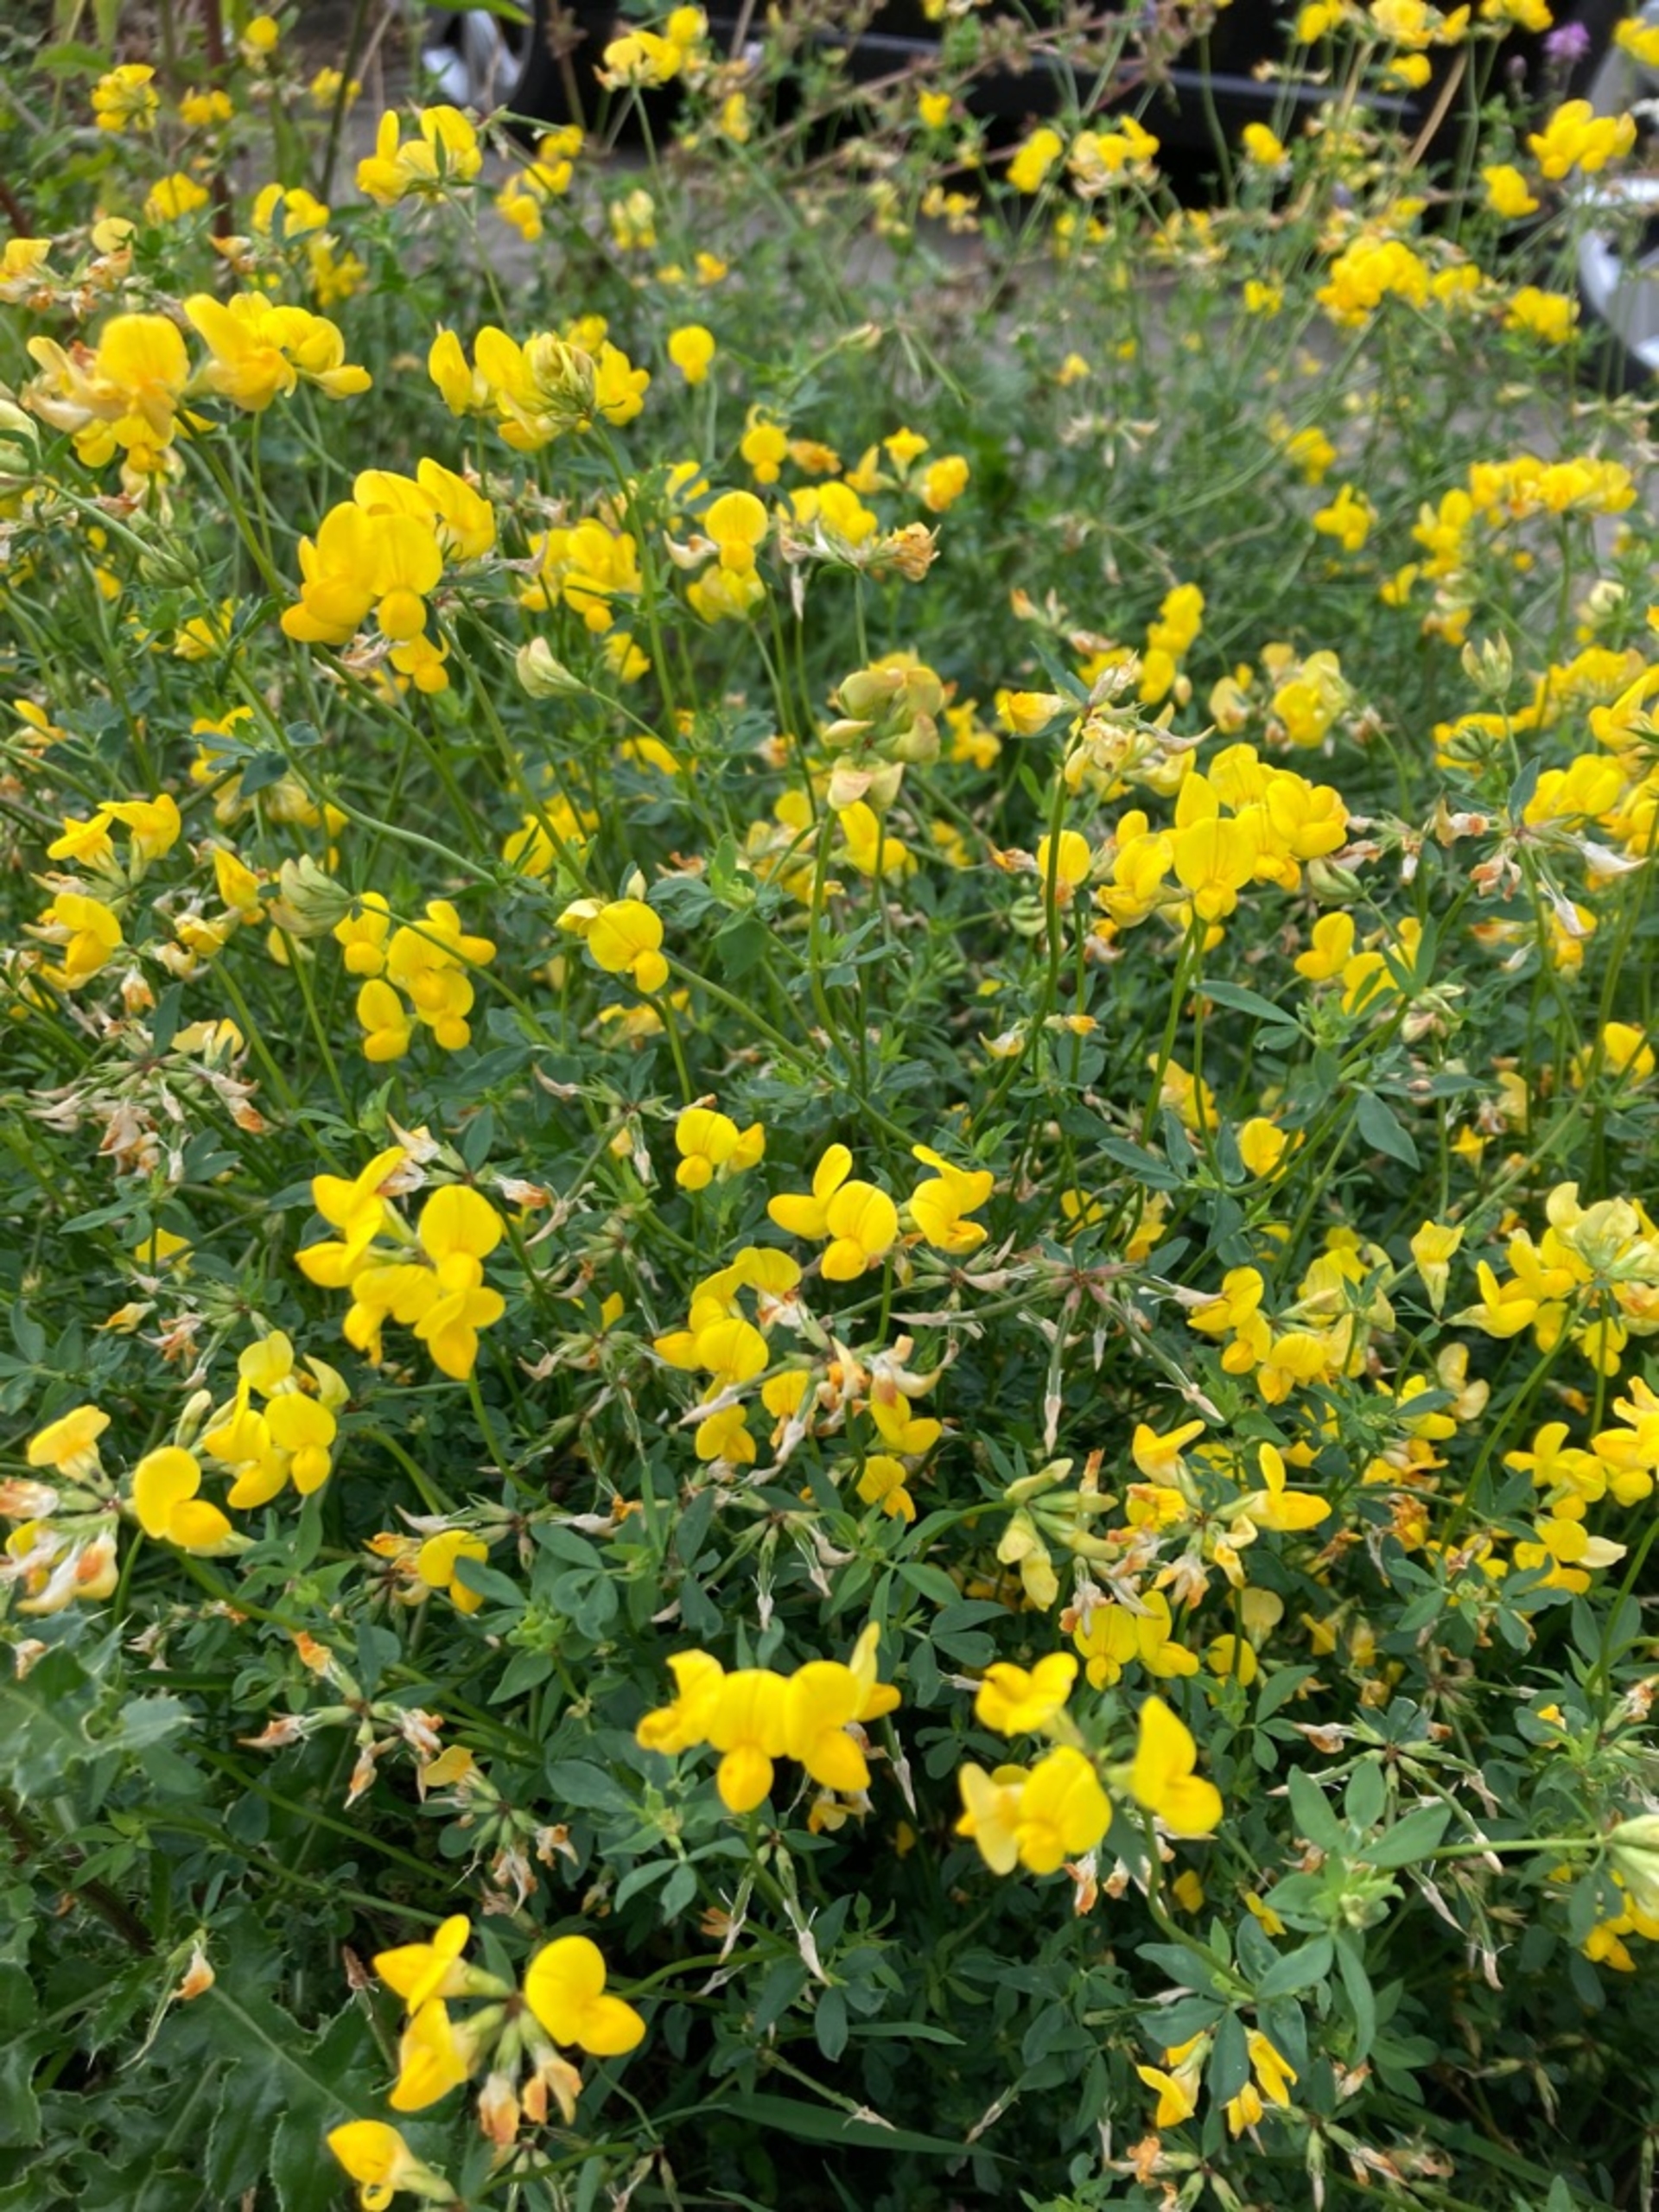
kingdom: Plantae
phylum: Tracheophyta
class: Magnoliopsida
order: Fabales
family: Fabaceae
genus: Lotus
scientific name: Lotus corniculatus
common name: Almindelig kællingetand
